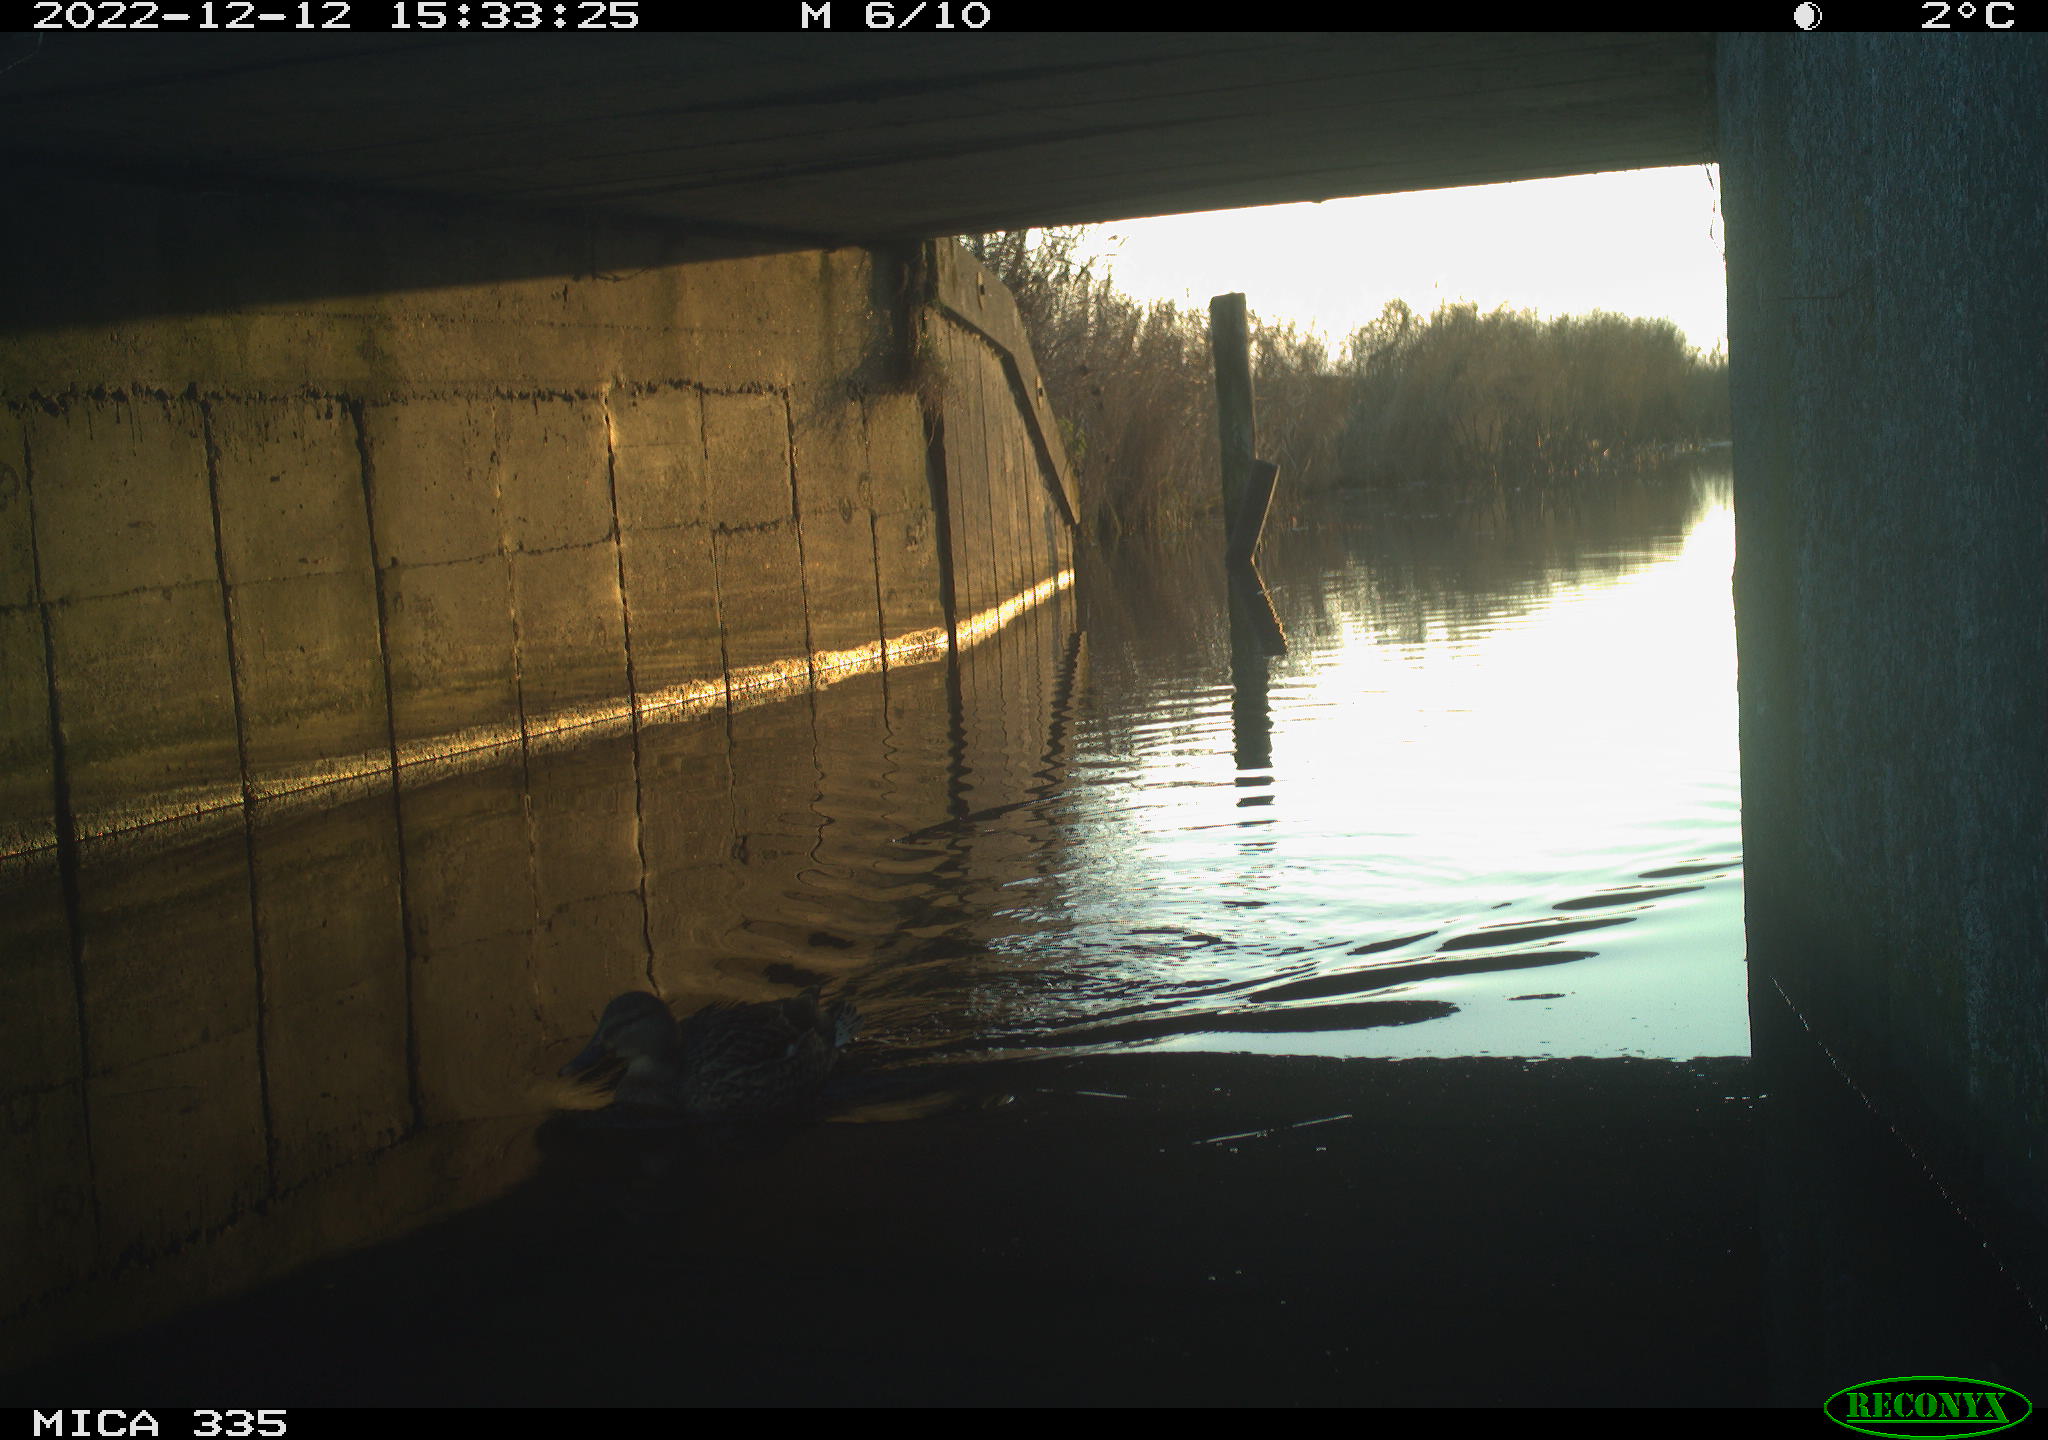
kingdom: Animalia
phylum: Chordata
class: Aves
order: Anseriformes
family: Anatidae
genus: Anas
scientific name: Anas
